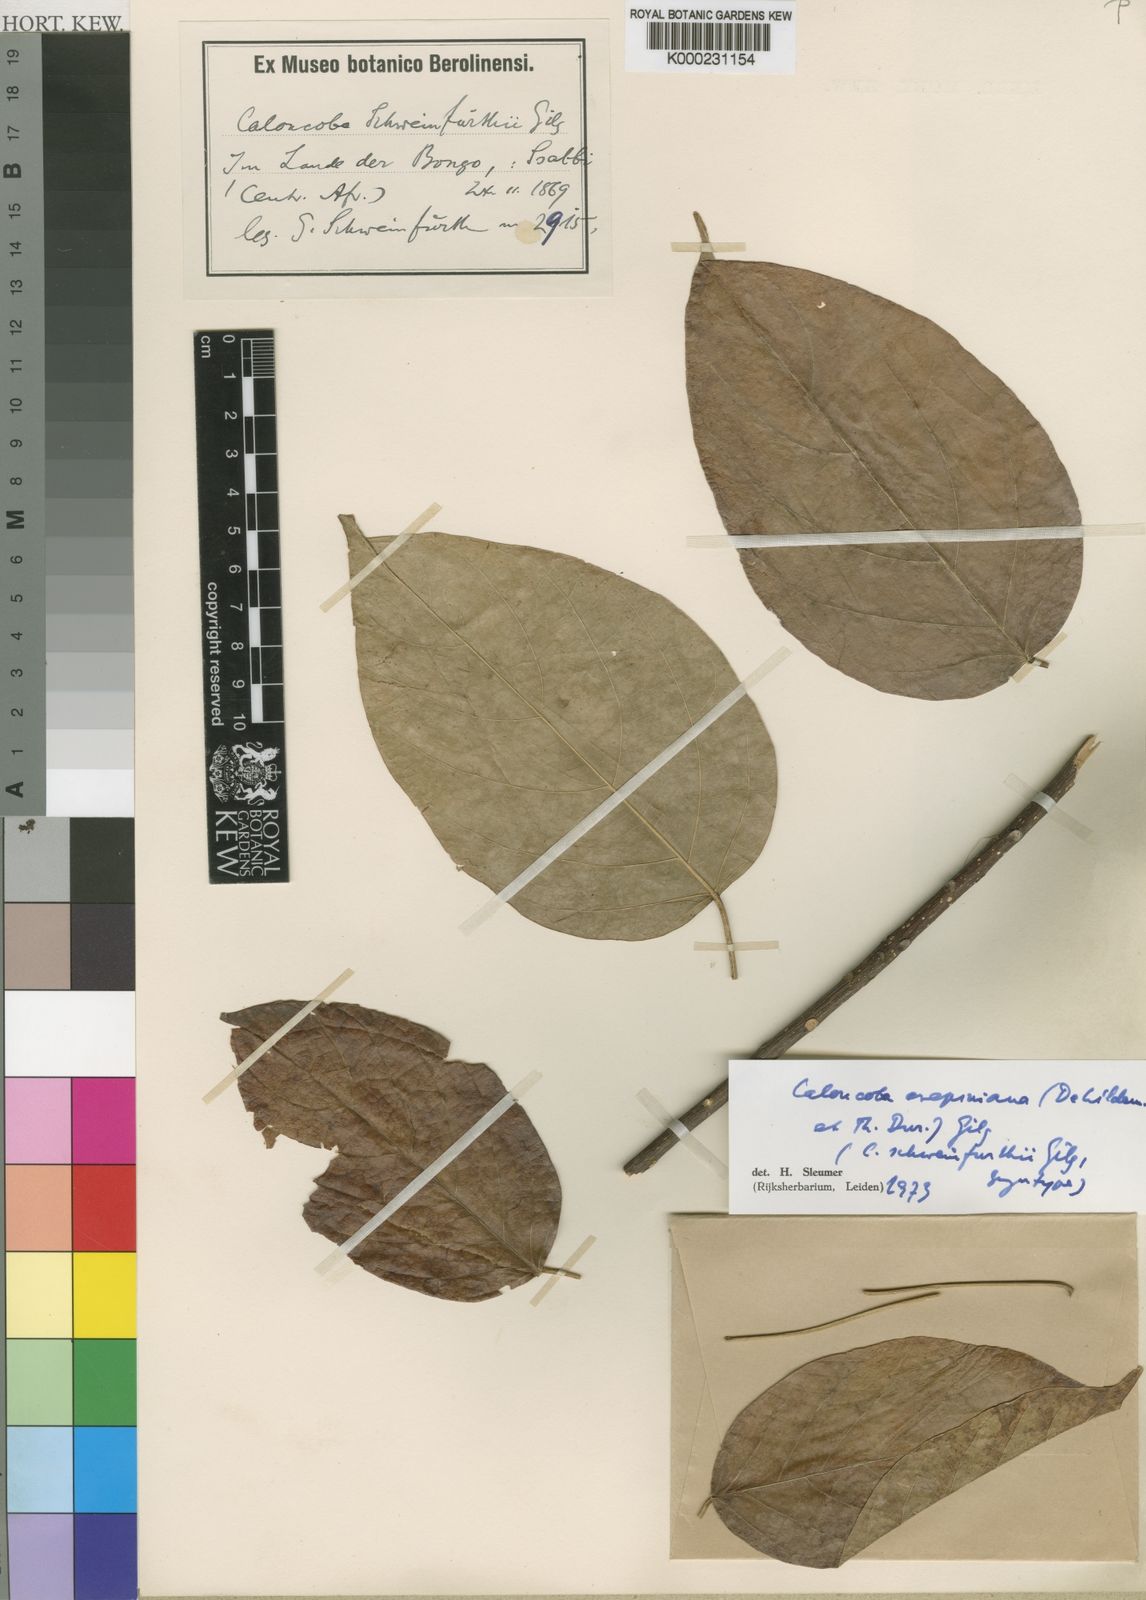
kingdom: Plantae
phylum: Tracheophyta
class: Magnoliopsida
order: Malpighiales
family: Achariaceae
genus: Caloncoba
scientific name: Caloncoba crepiniana
